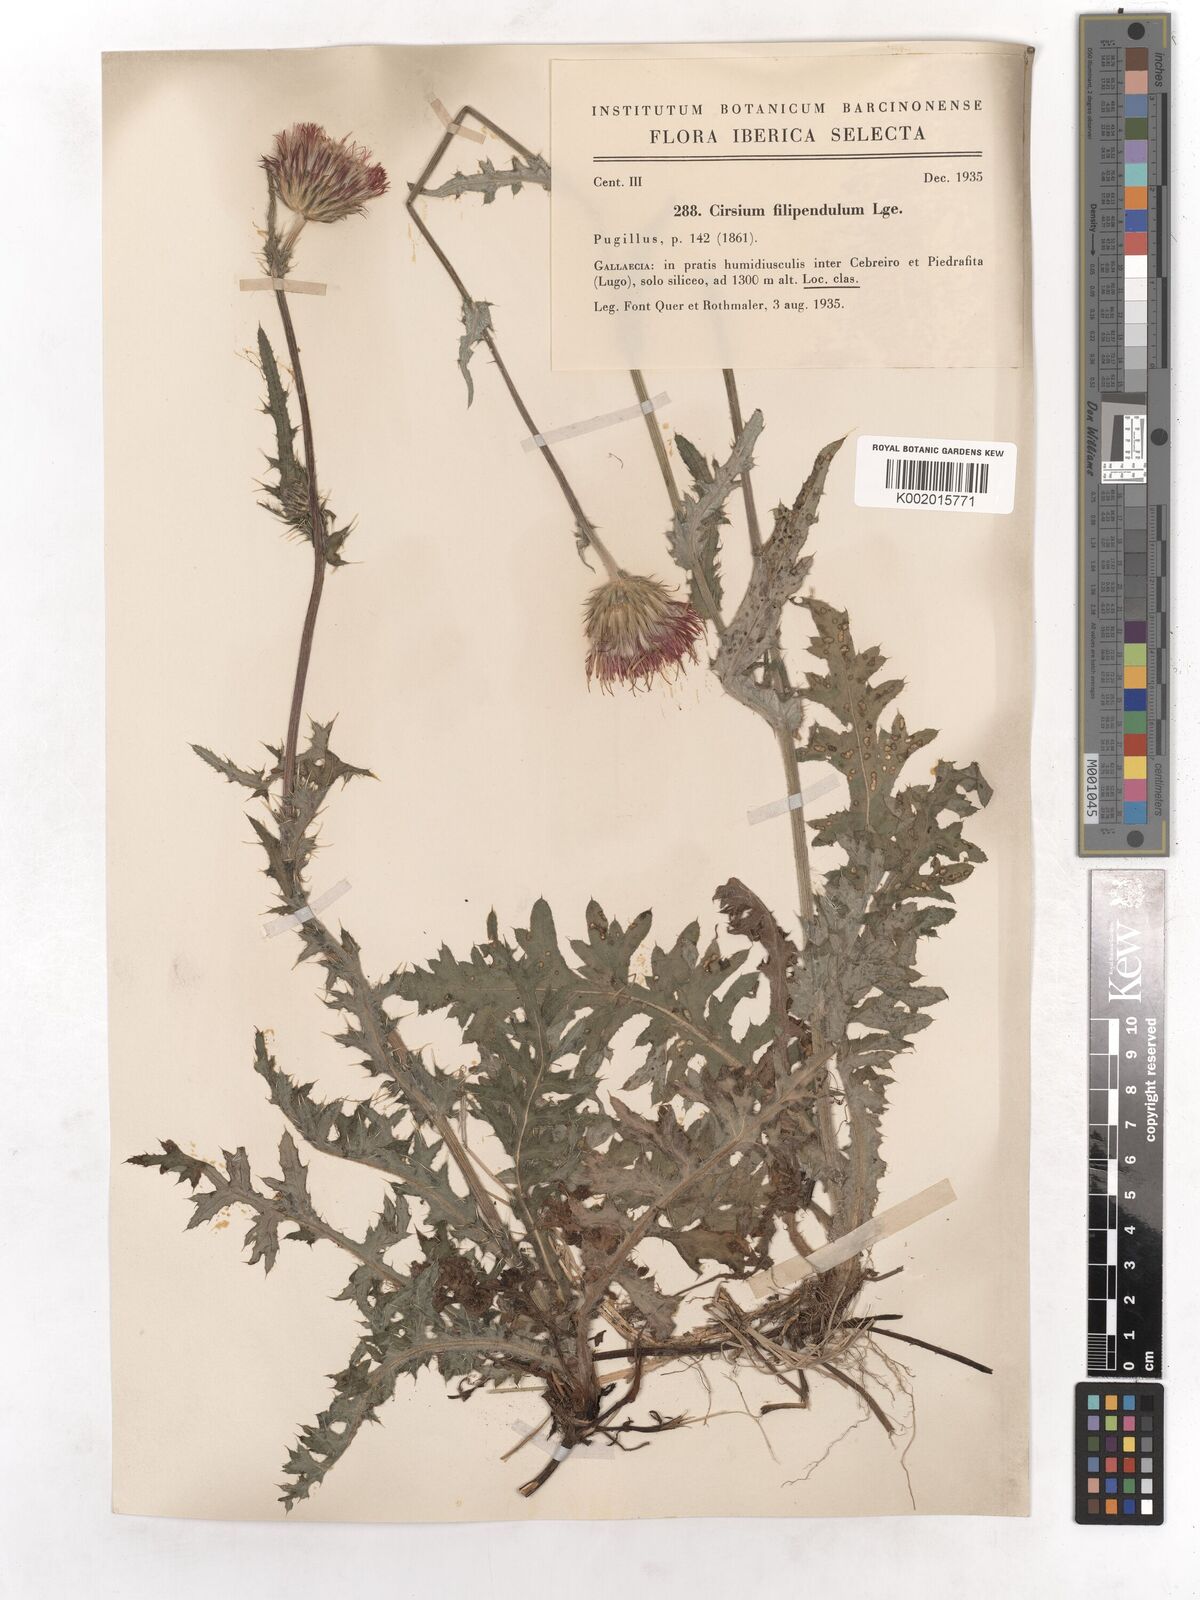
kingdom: Plantae
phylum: Tracheophyta
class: Magnoliopsida
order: Asterales
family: Asteraceae
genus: Cirsium
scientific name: Cirsium filipendulum
